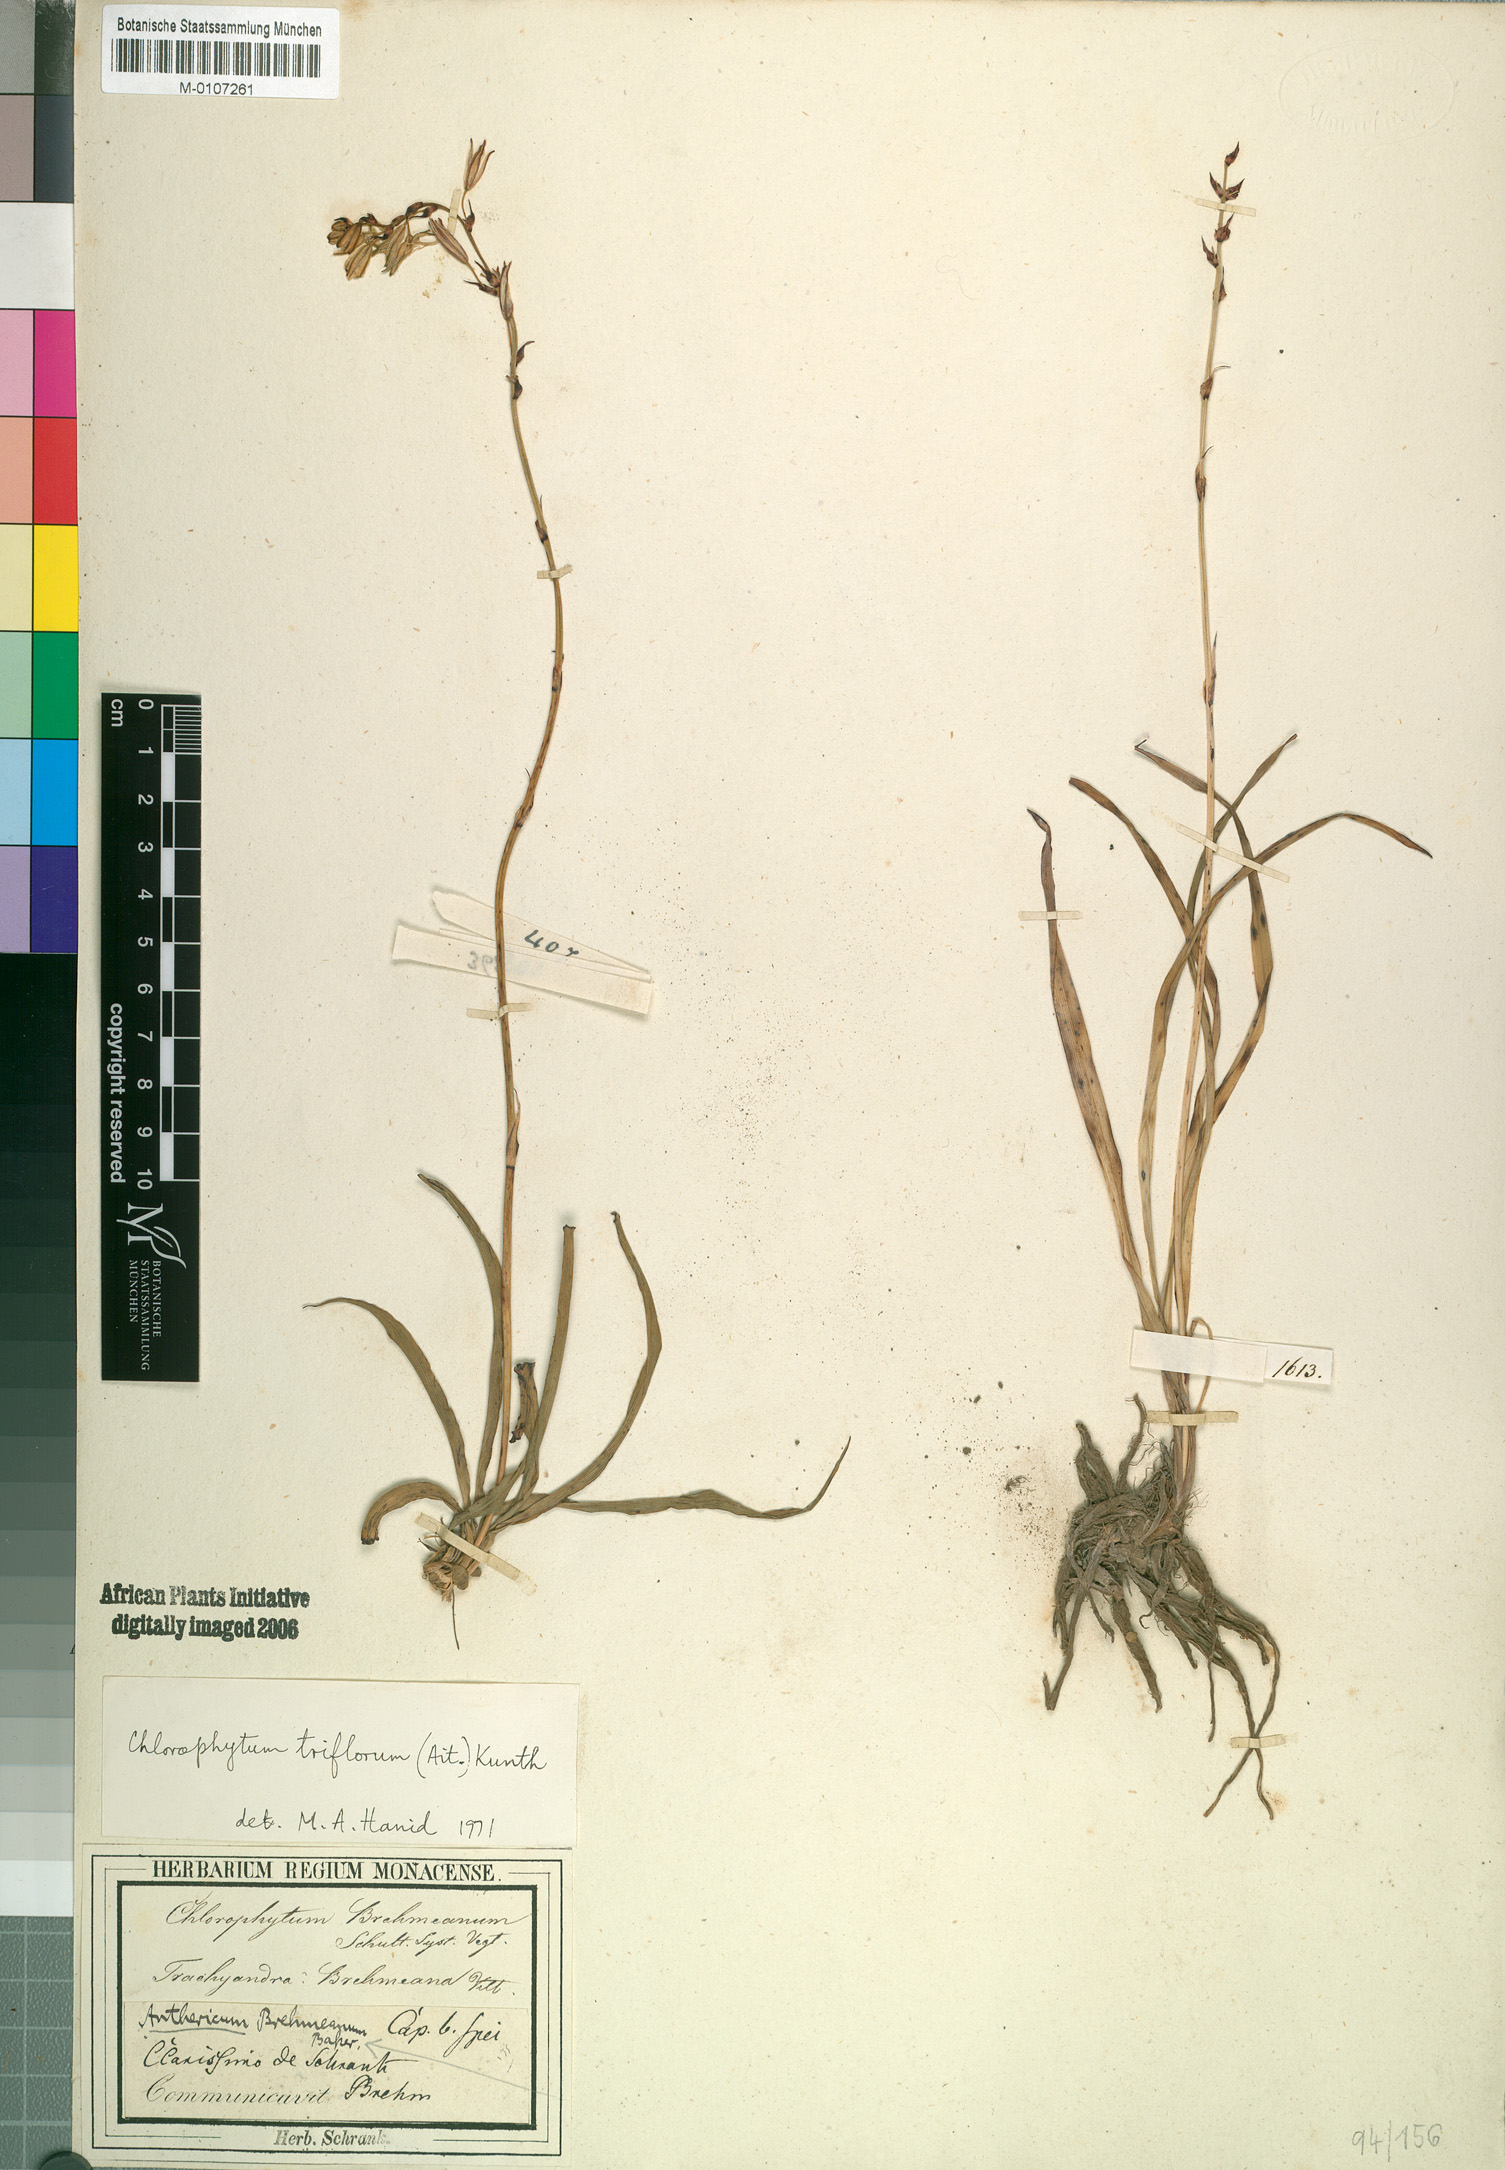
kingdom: Plantae
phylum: Tracheophyta
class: Liliopsida
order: Asparagales
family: Asparagaceae
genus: Chlorophytum
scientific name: Chlorophytum triflorum
